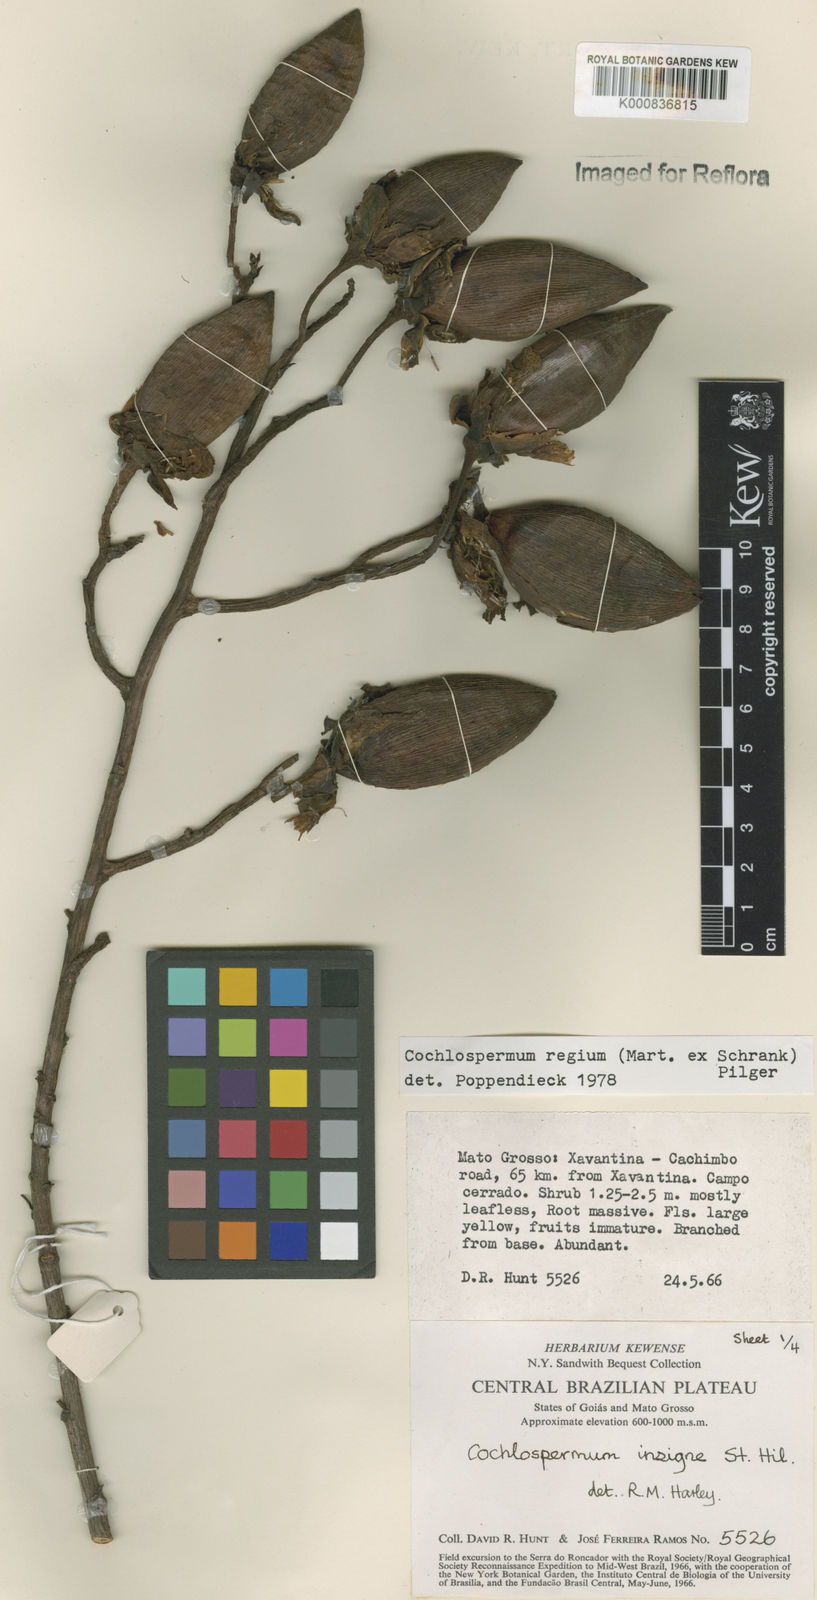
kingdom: Plantae
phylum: Tracheophyta
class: Magnoliopsida
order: Malvales
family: Cochlospermaceae
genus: Cochlospermum
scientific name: Cochlospermum regium
